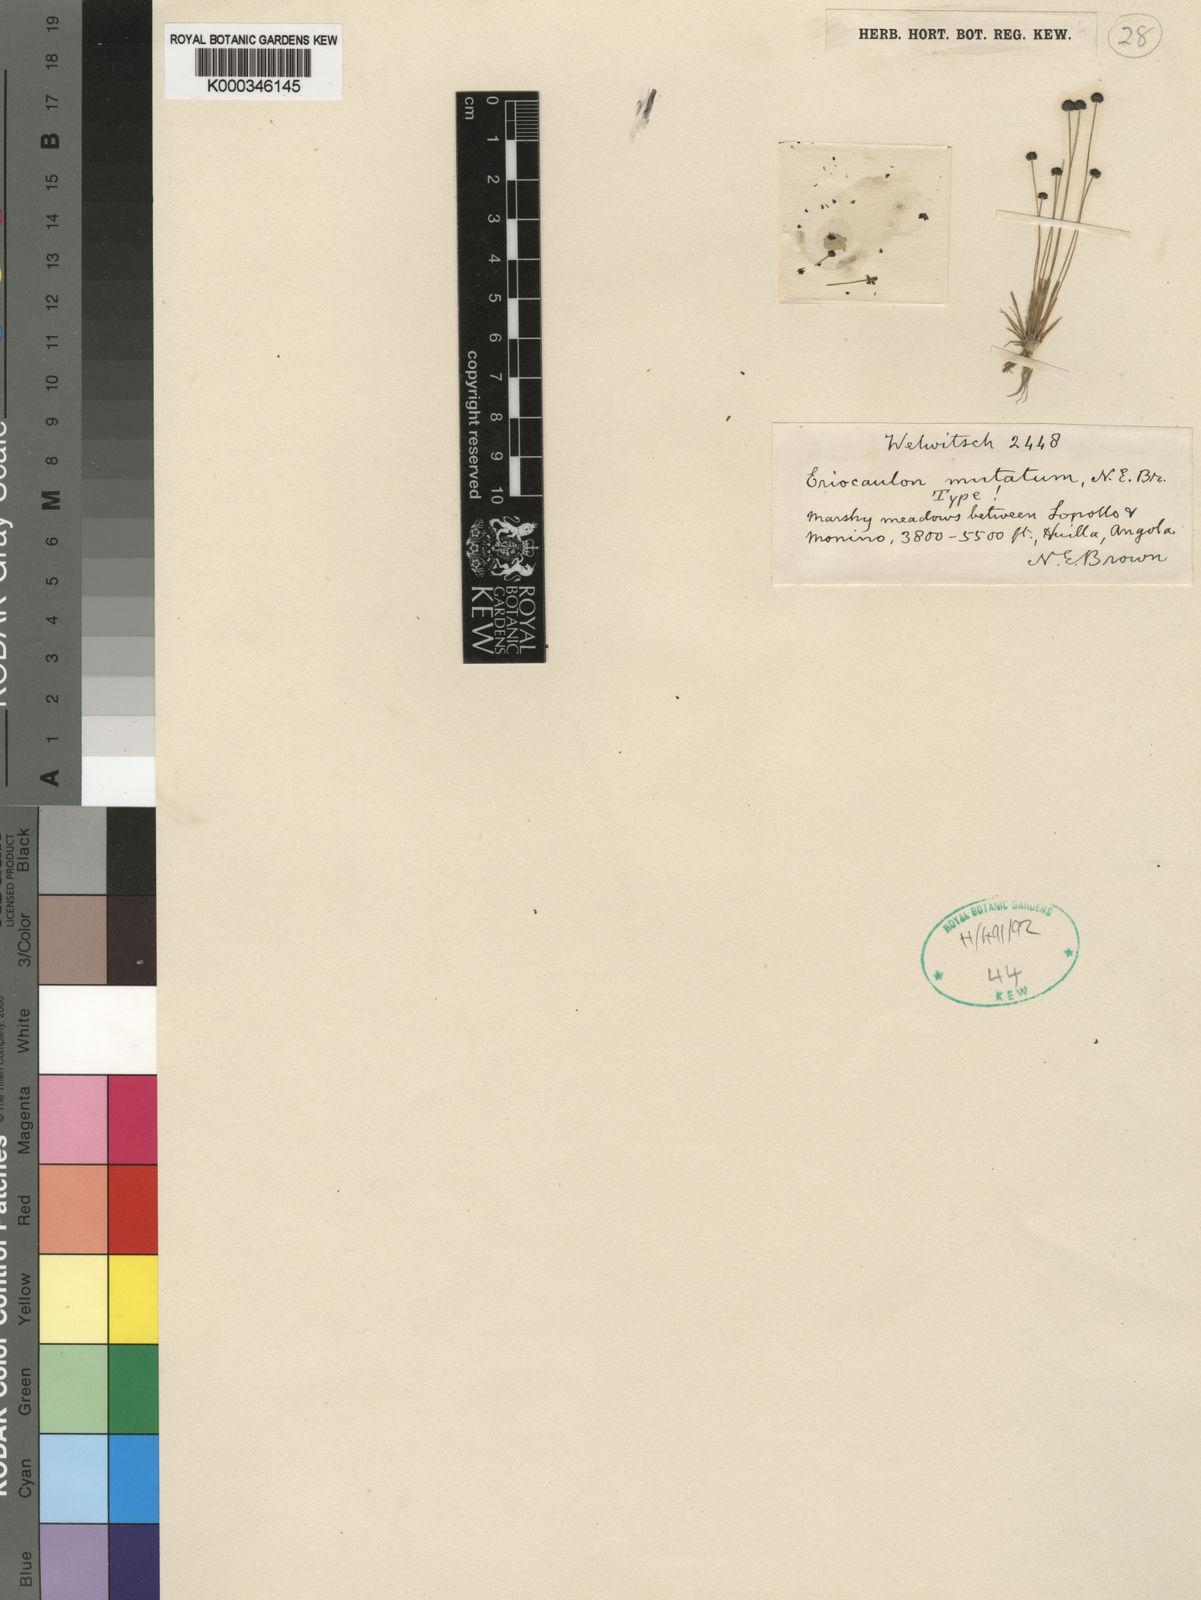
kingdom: Plantae
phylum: Tracheophyta
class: Liliopsida
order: Poales
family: Eriocaulaceae
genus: Eriocaulon
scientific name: Eriocaulon mutatum
